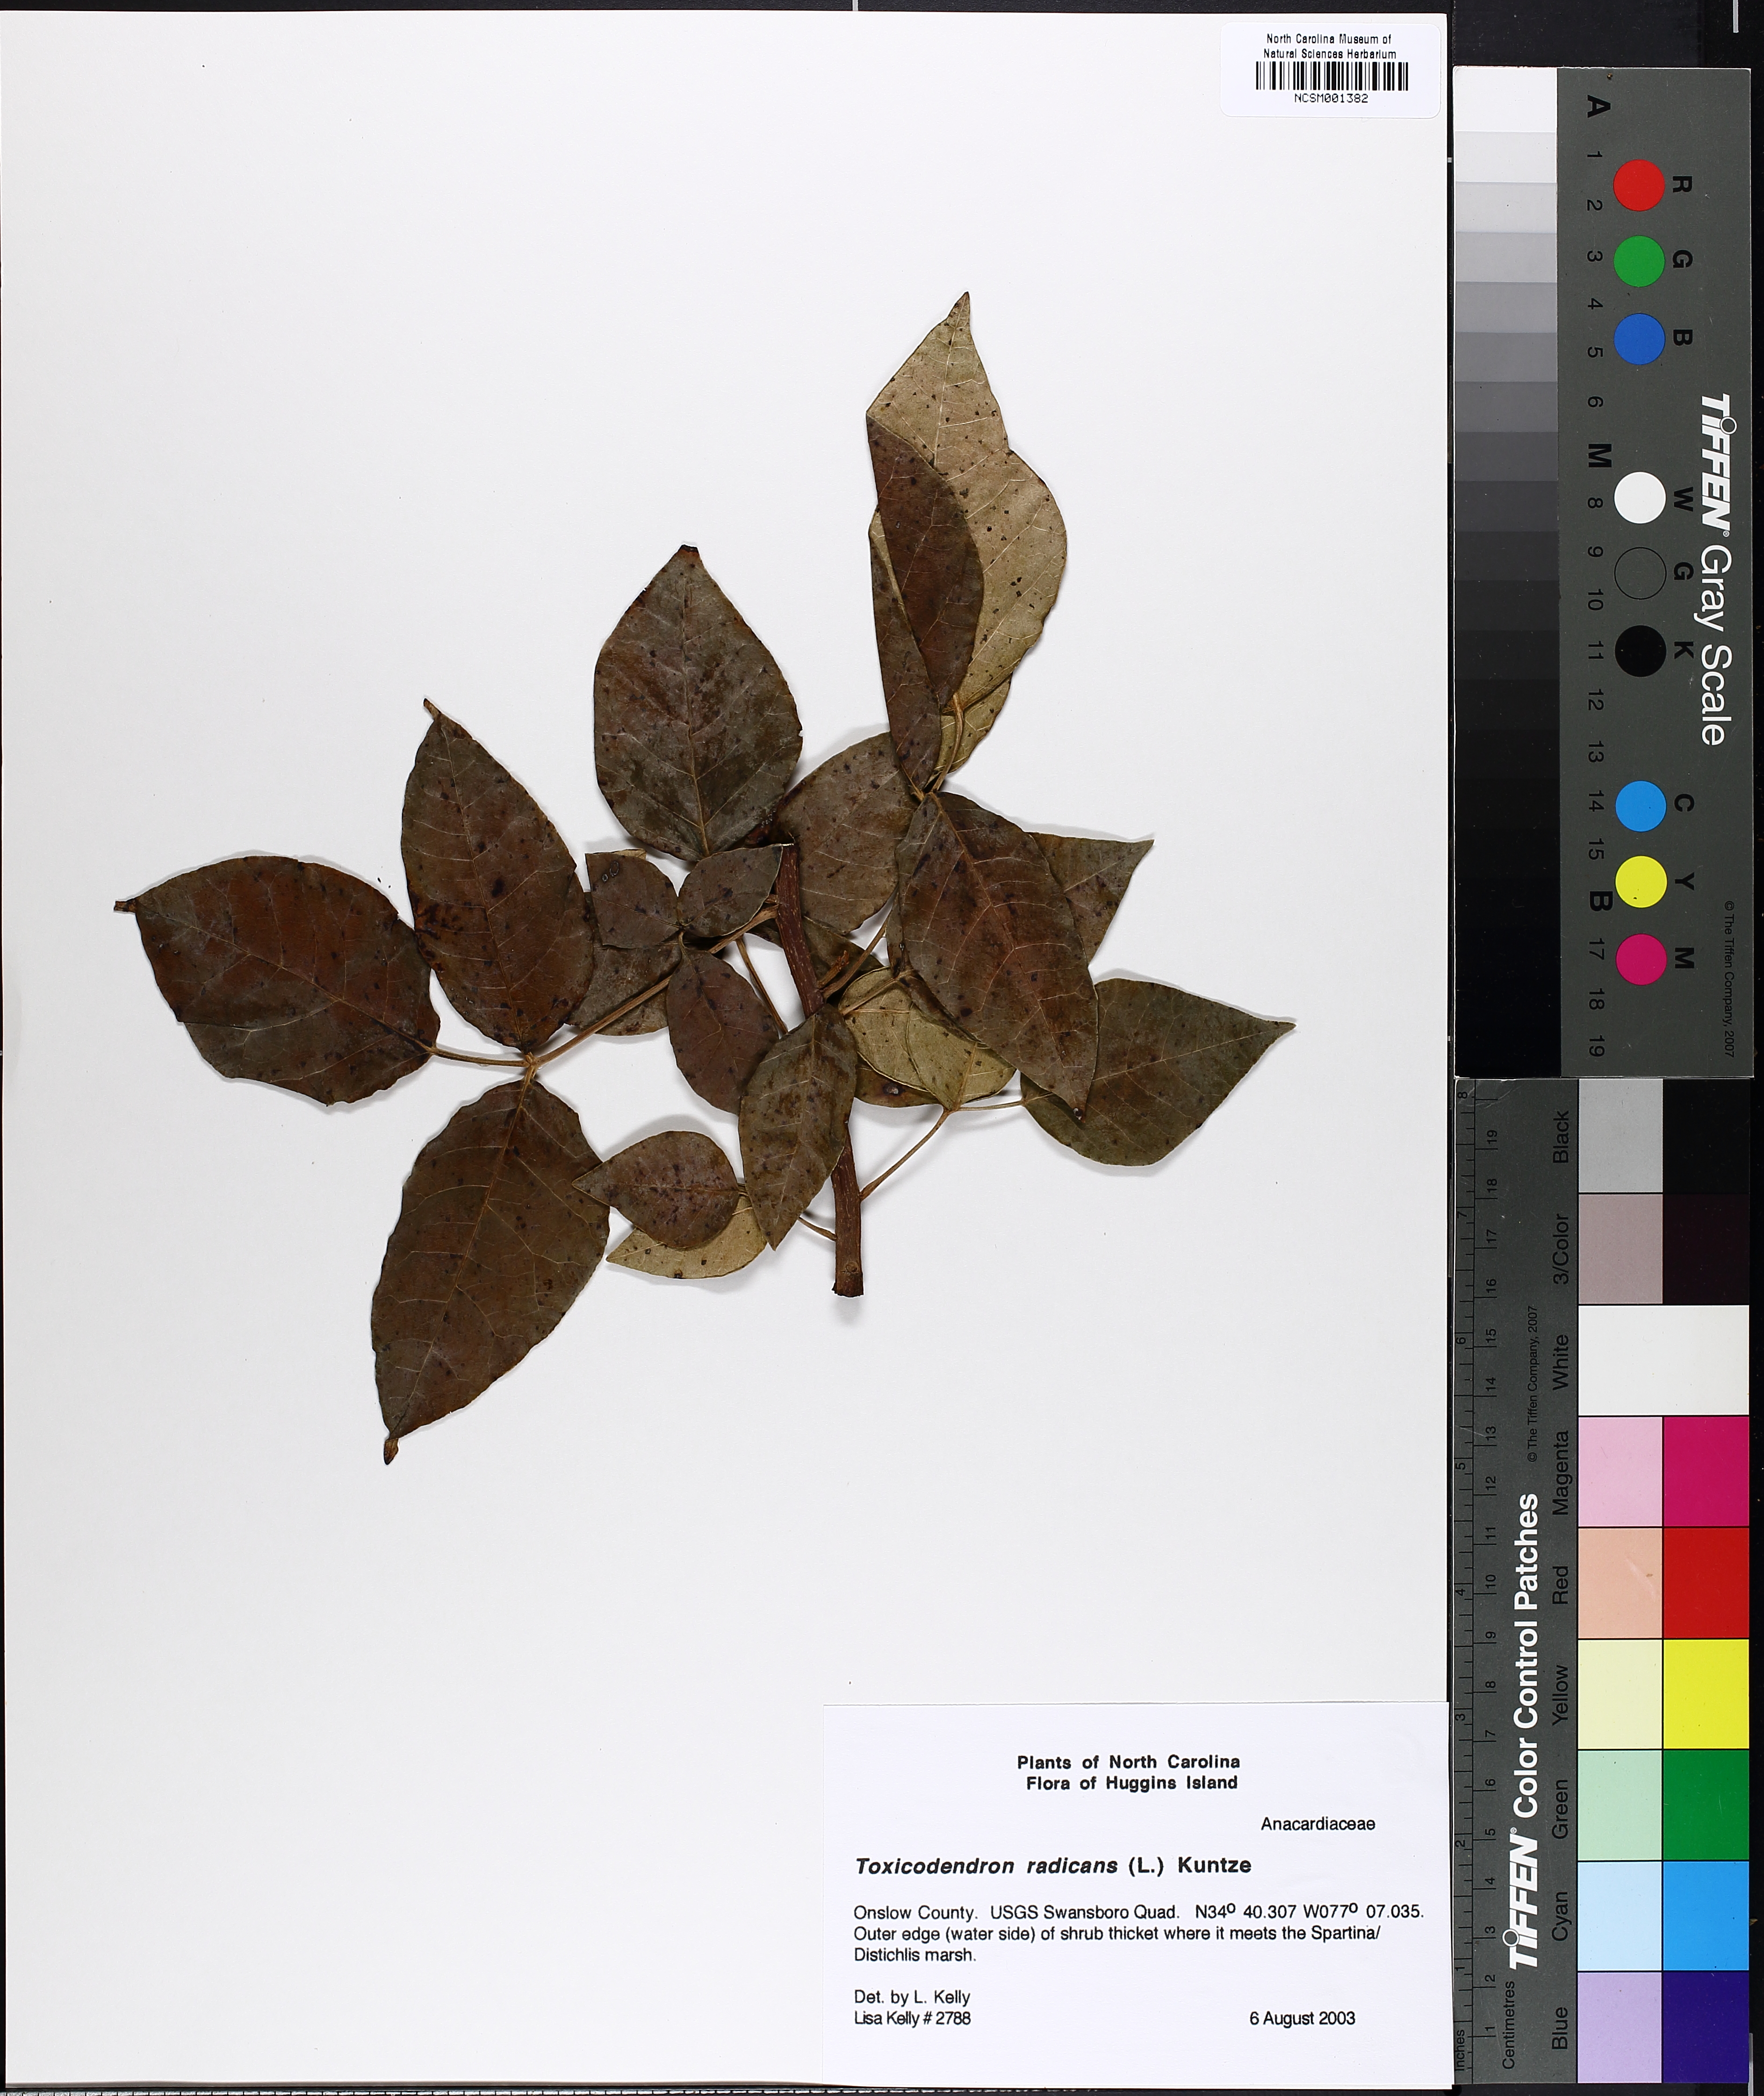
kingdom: Plantae
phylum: Tracheophyta
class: Magnoliopsida
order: Sapindales
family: Anacardiaceae
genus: Toxicodendron
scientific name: Toxicodendron radicans
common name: Poison ivy
